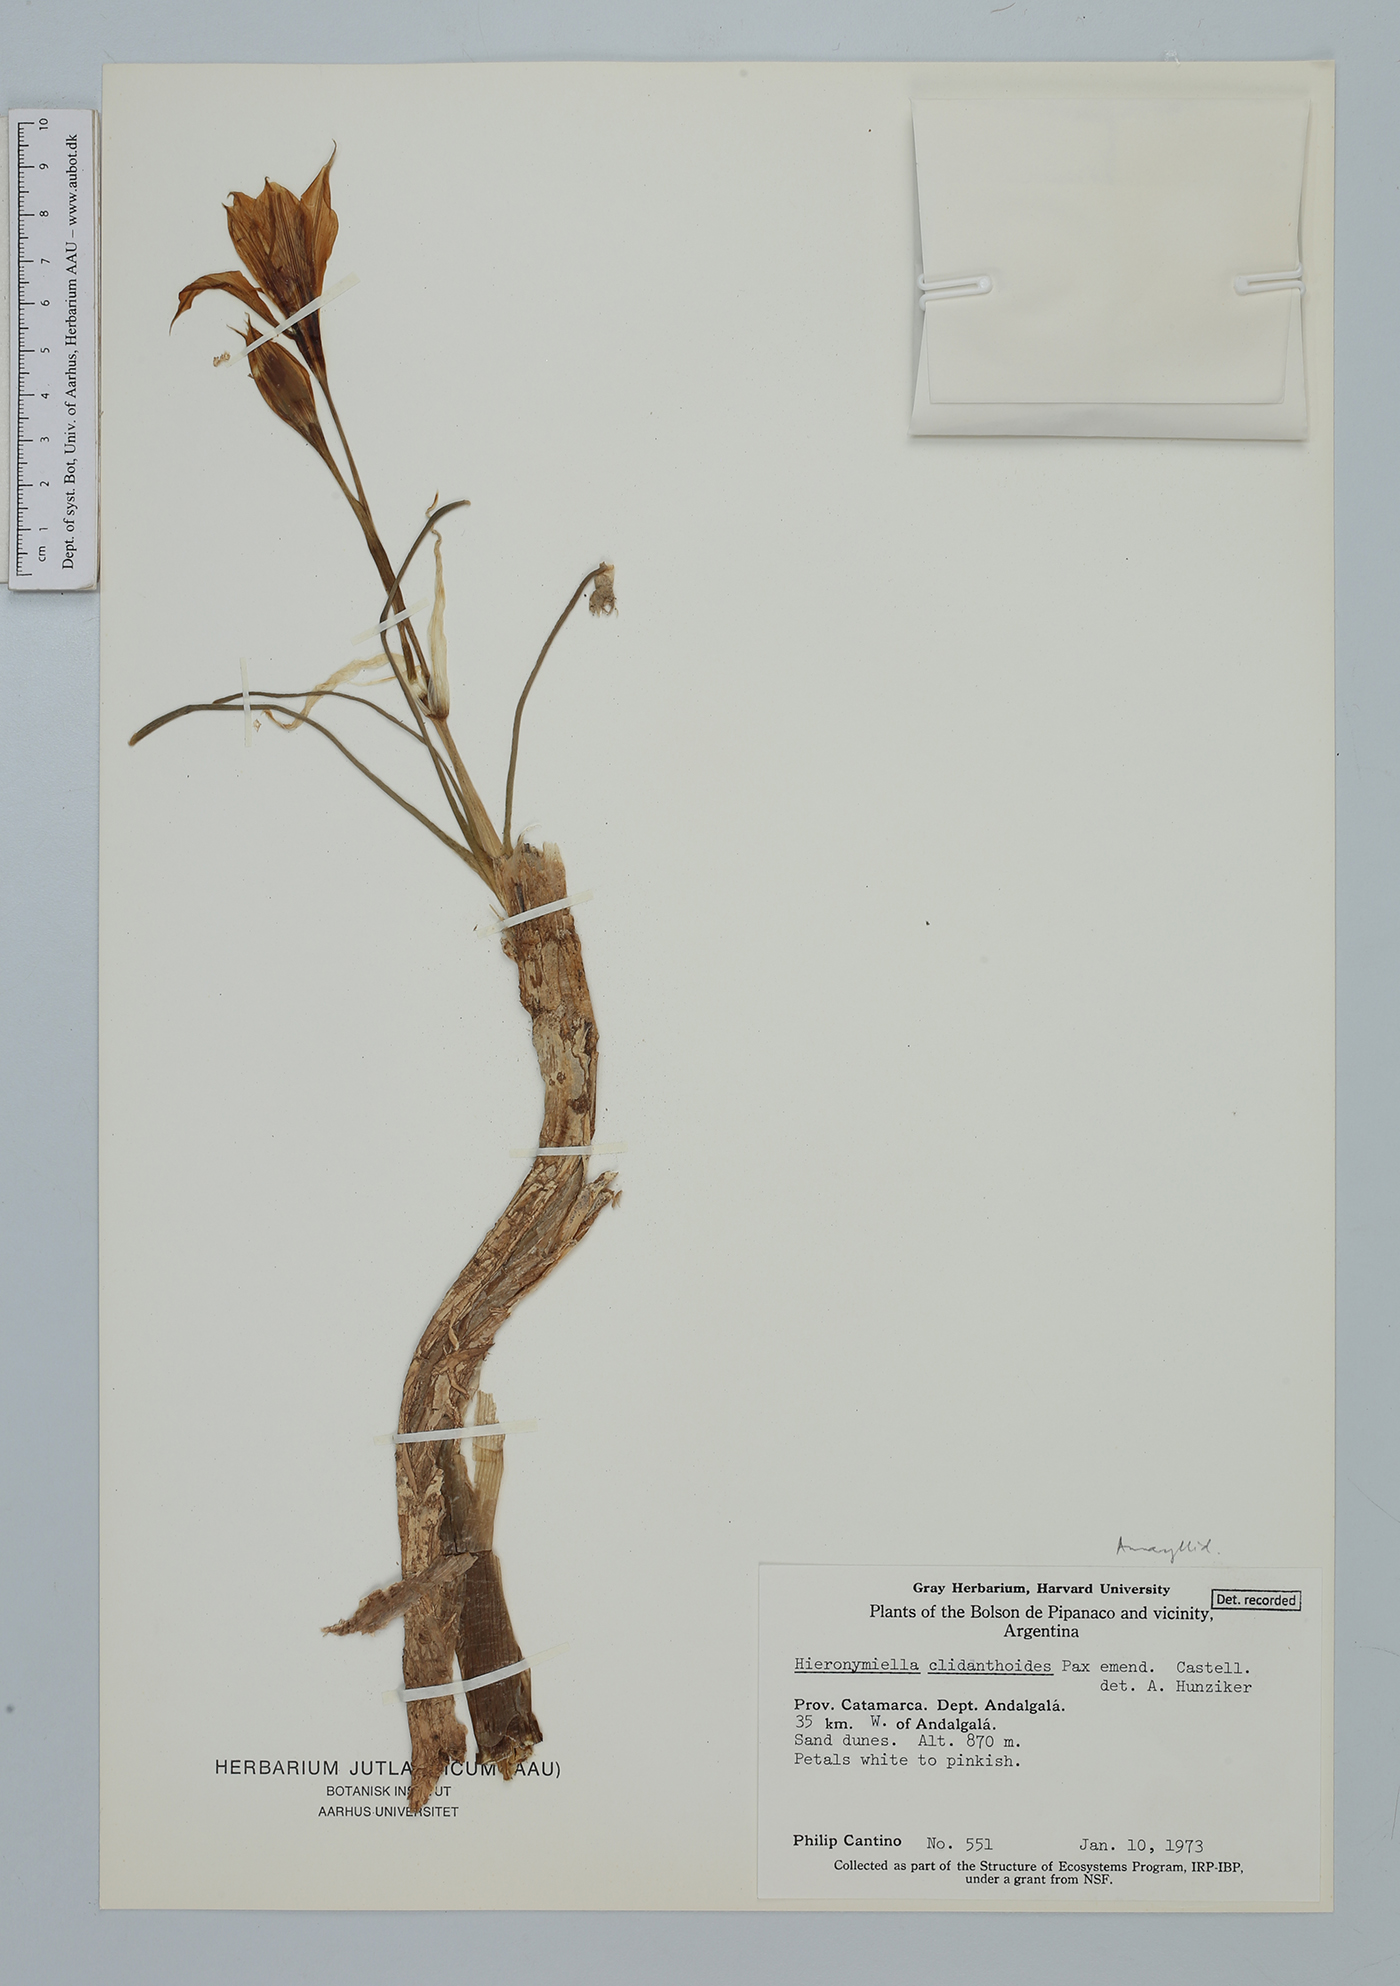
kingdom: Plantae
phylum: Tracheophyta
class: Liliopsida
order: Asparagales
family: Amaryllidaceae
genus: Hieronymiella
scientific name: Hieronymiella clidanthoides
